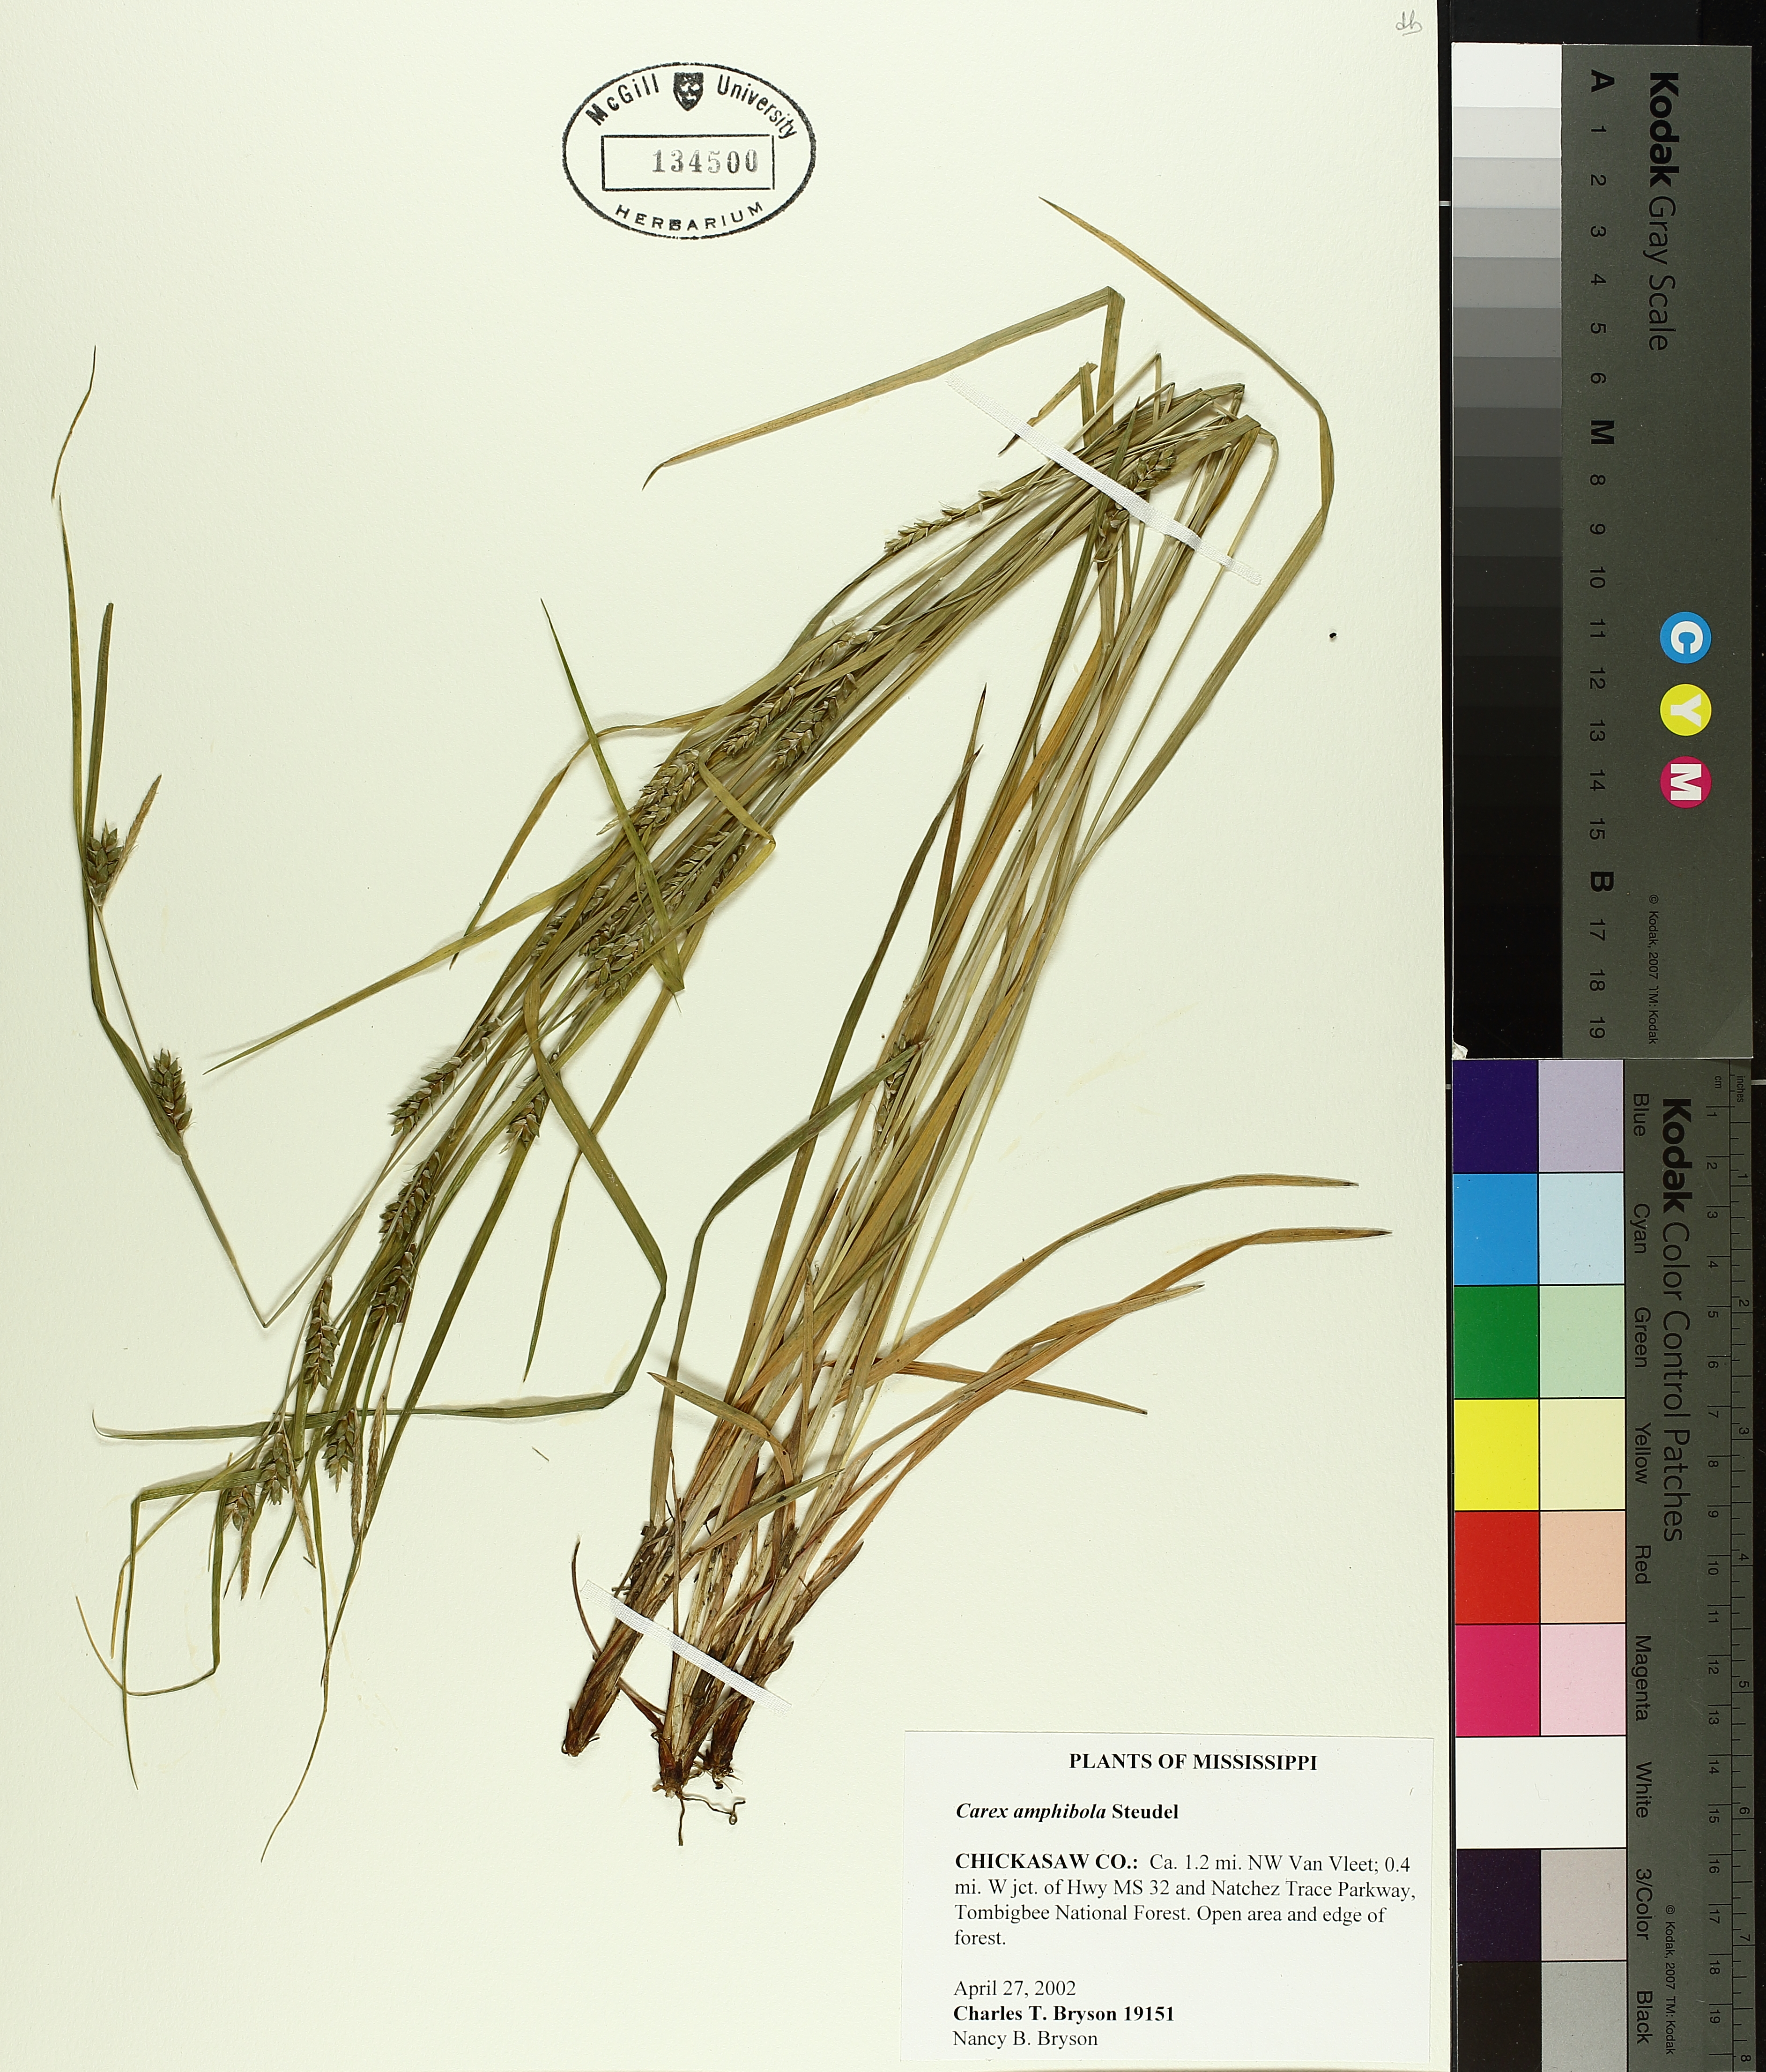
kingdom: Plantae
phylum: Tracheophyta
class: Liliopsida
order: Poales
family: Cyperaceae
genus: Carex
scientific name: Carex amphibola
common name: Amphibious sedge
